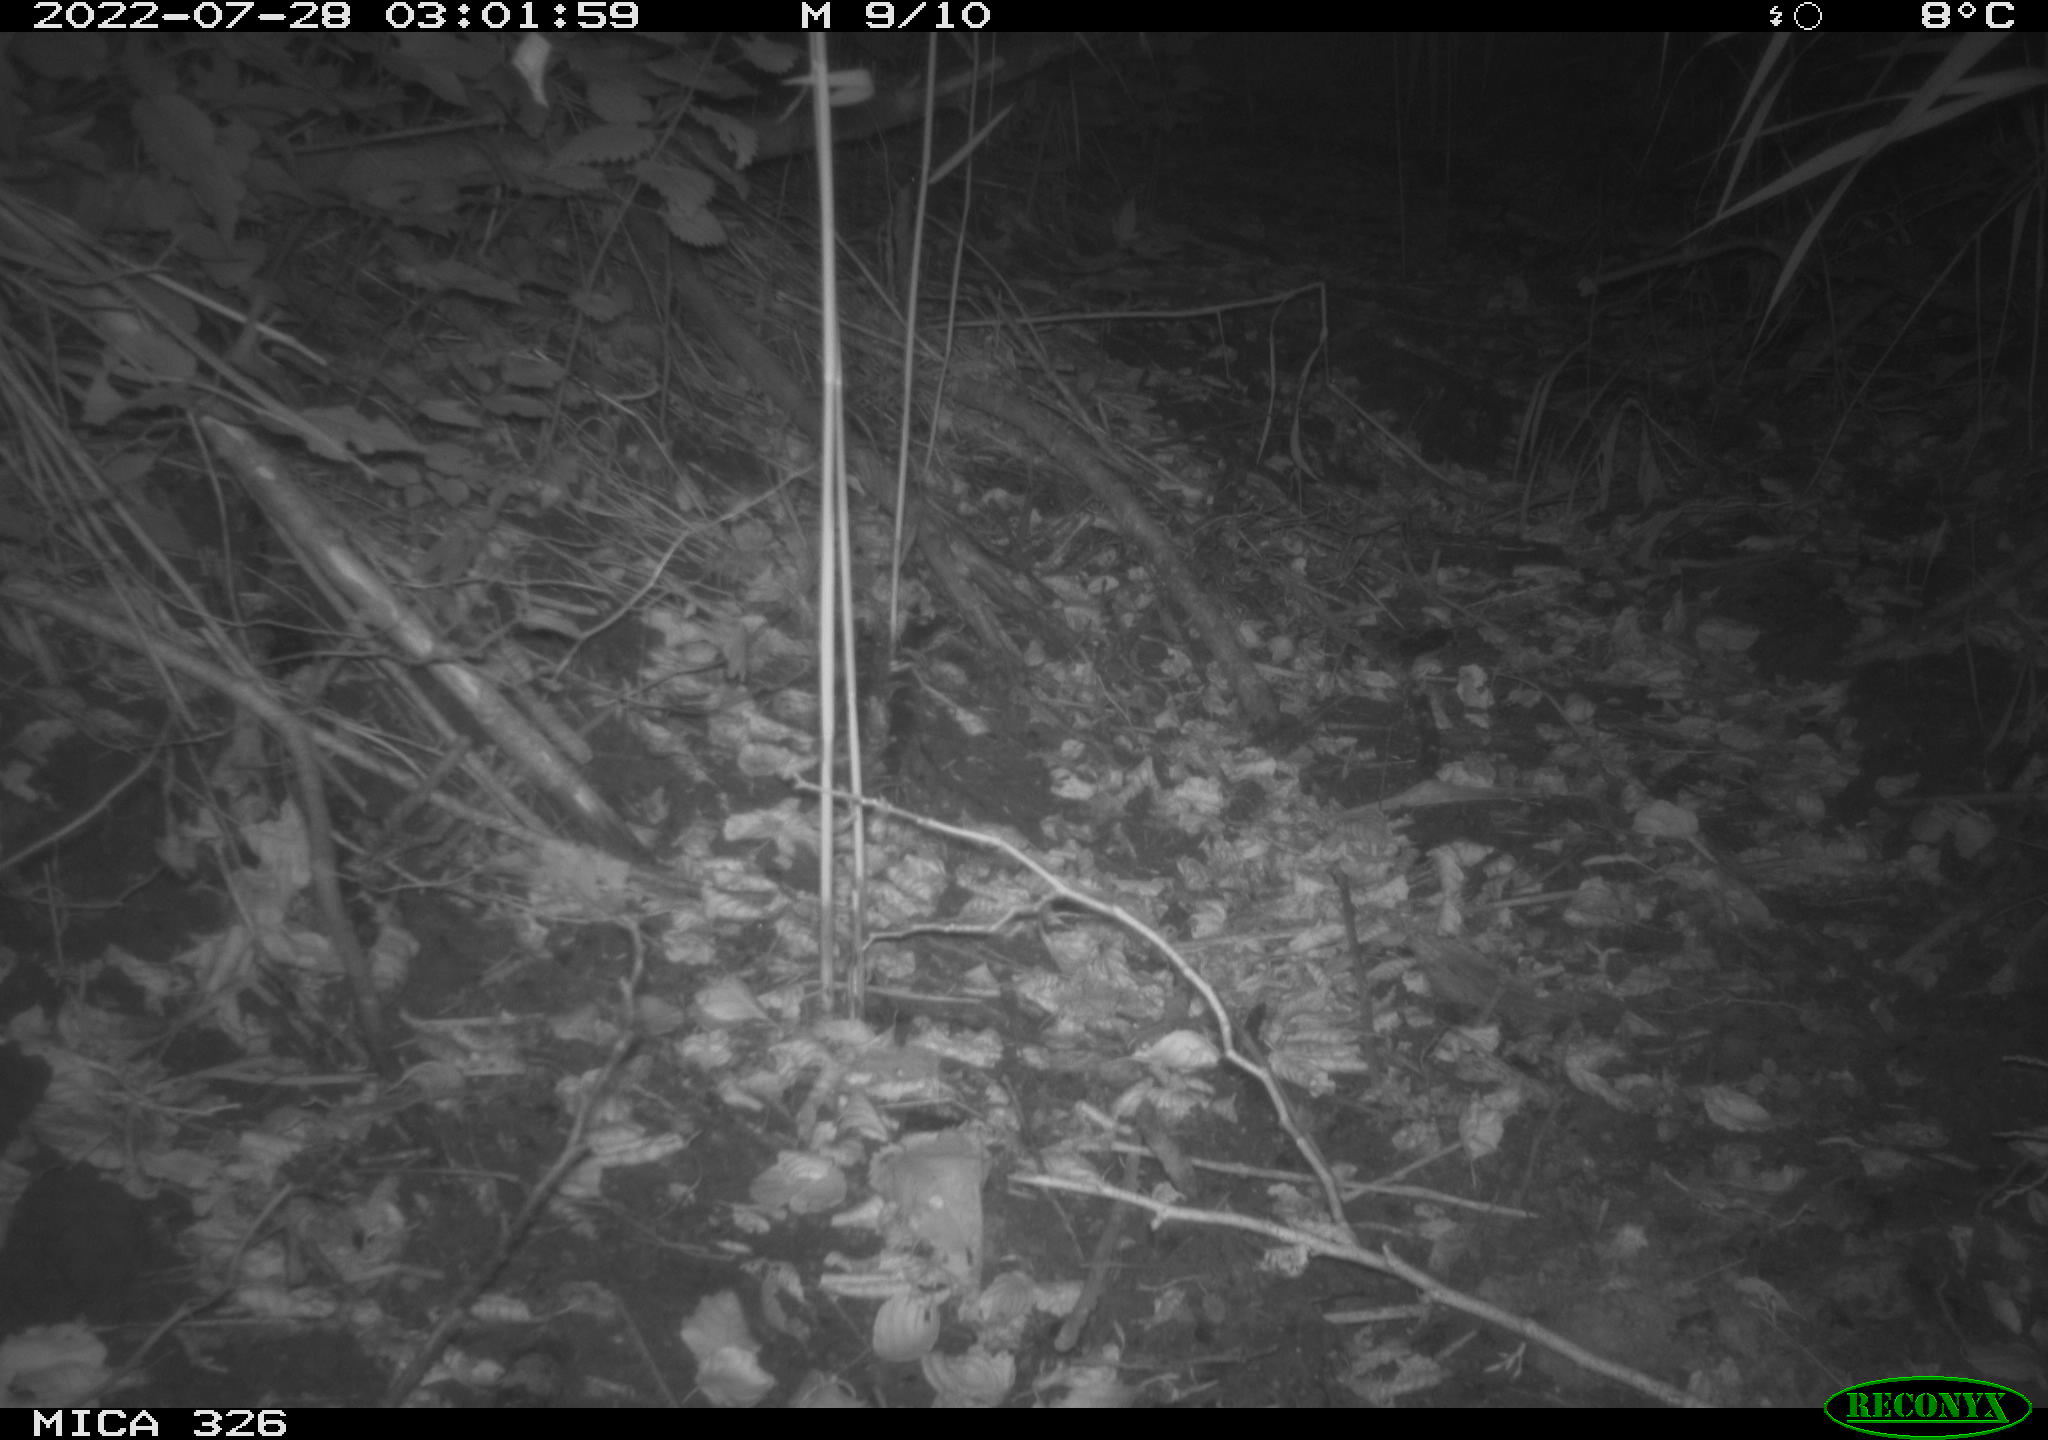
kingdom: Animalia
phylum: Chordata
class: Mammalia
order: Rodentia
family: Muridae
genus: Rattus
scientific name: Rattus norvegicus
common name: Brown rat
